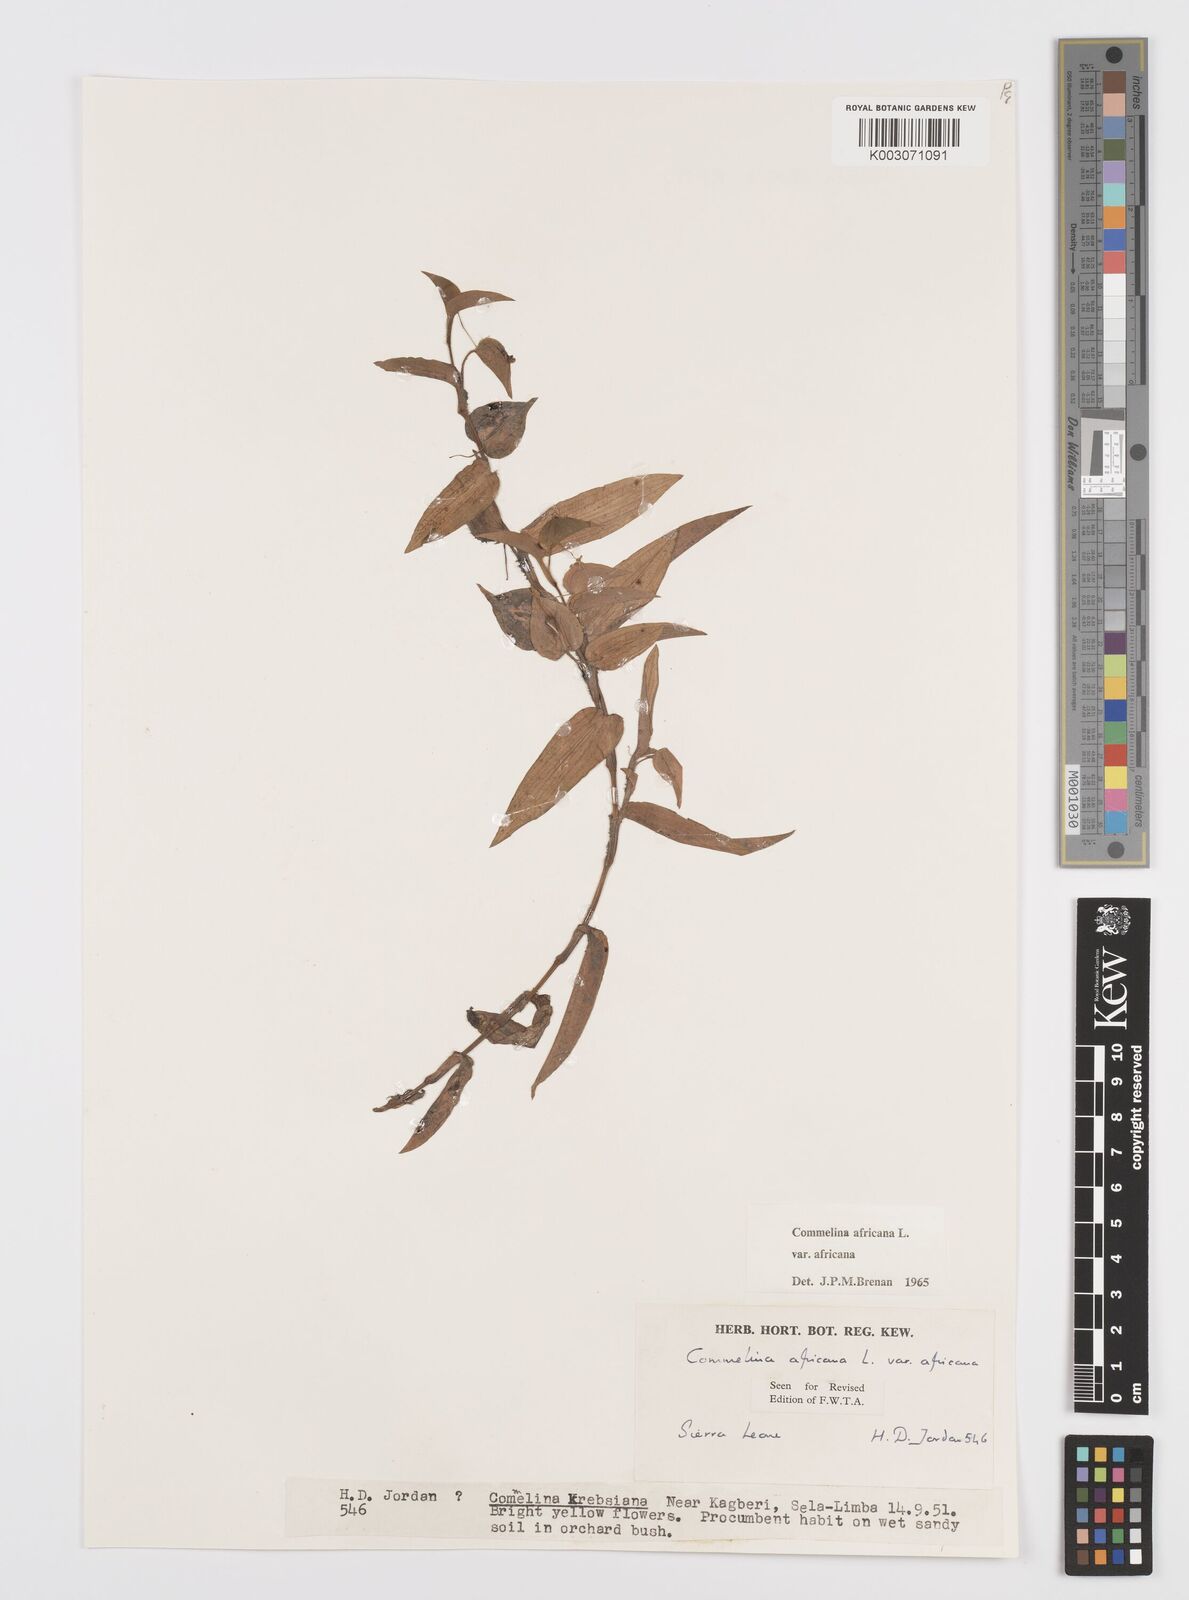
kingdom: Plantae
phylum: Tracheophyta
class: Liliopsida
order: Commelinales
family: Commelinaceae
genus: Commelina
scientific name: Commelina africana
